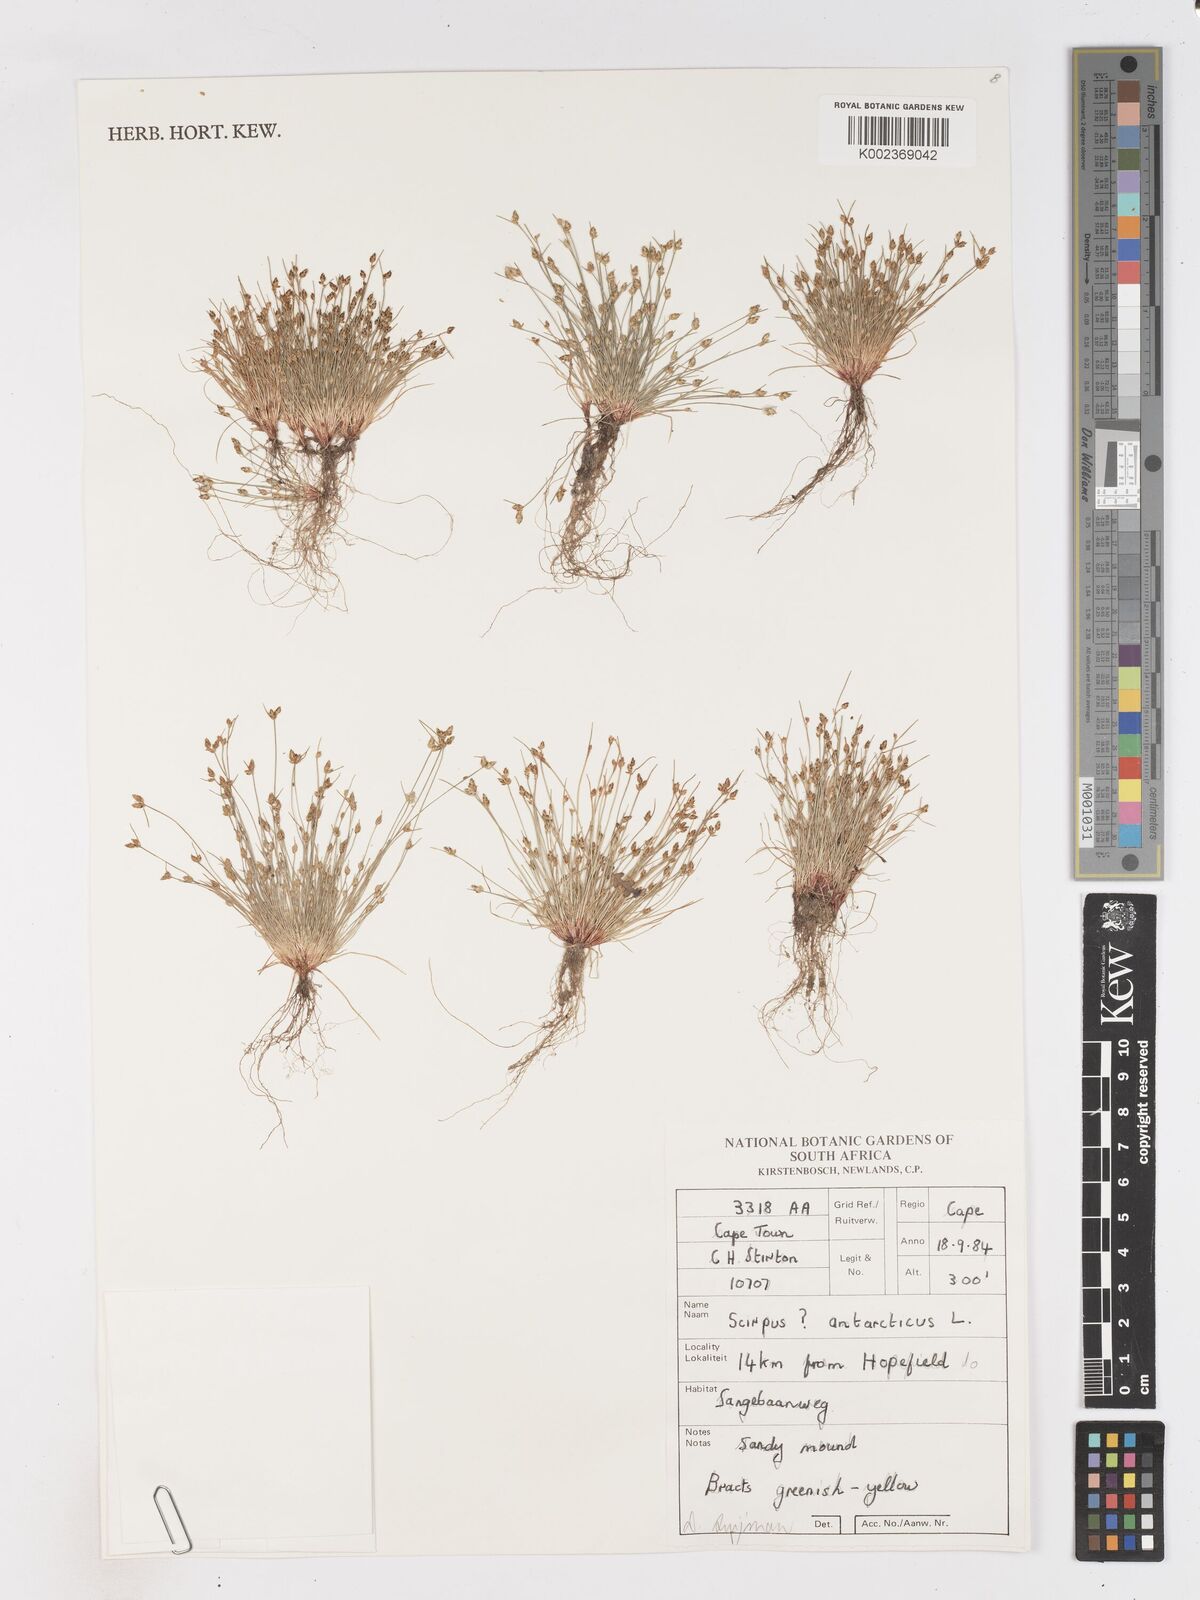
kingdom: Plantae
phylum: Tracheophyta
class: Liliopsida
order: Poales
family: Cyperaceae
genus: Isolepis
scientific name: Isolepis diabolica
